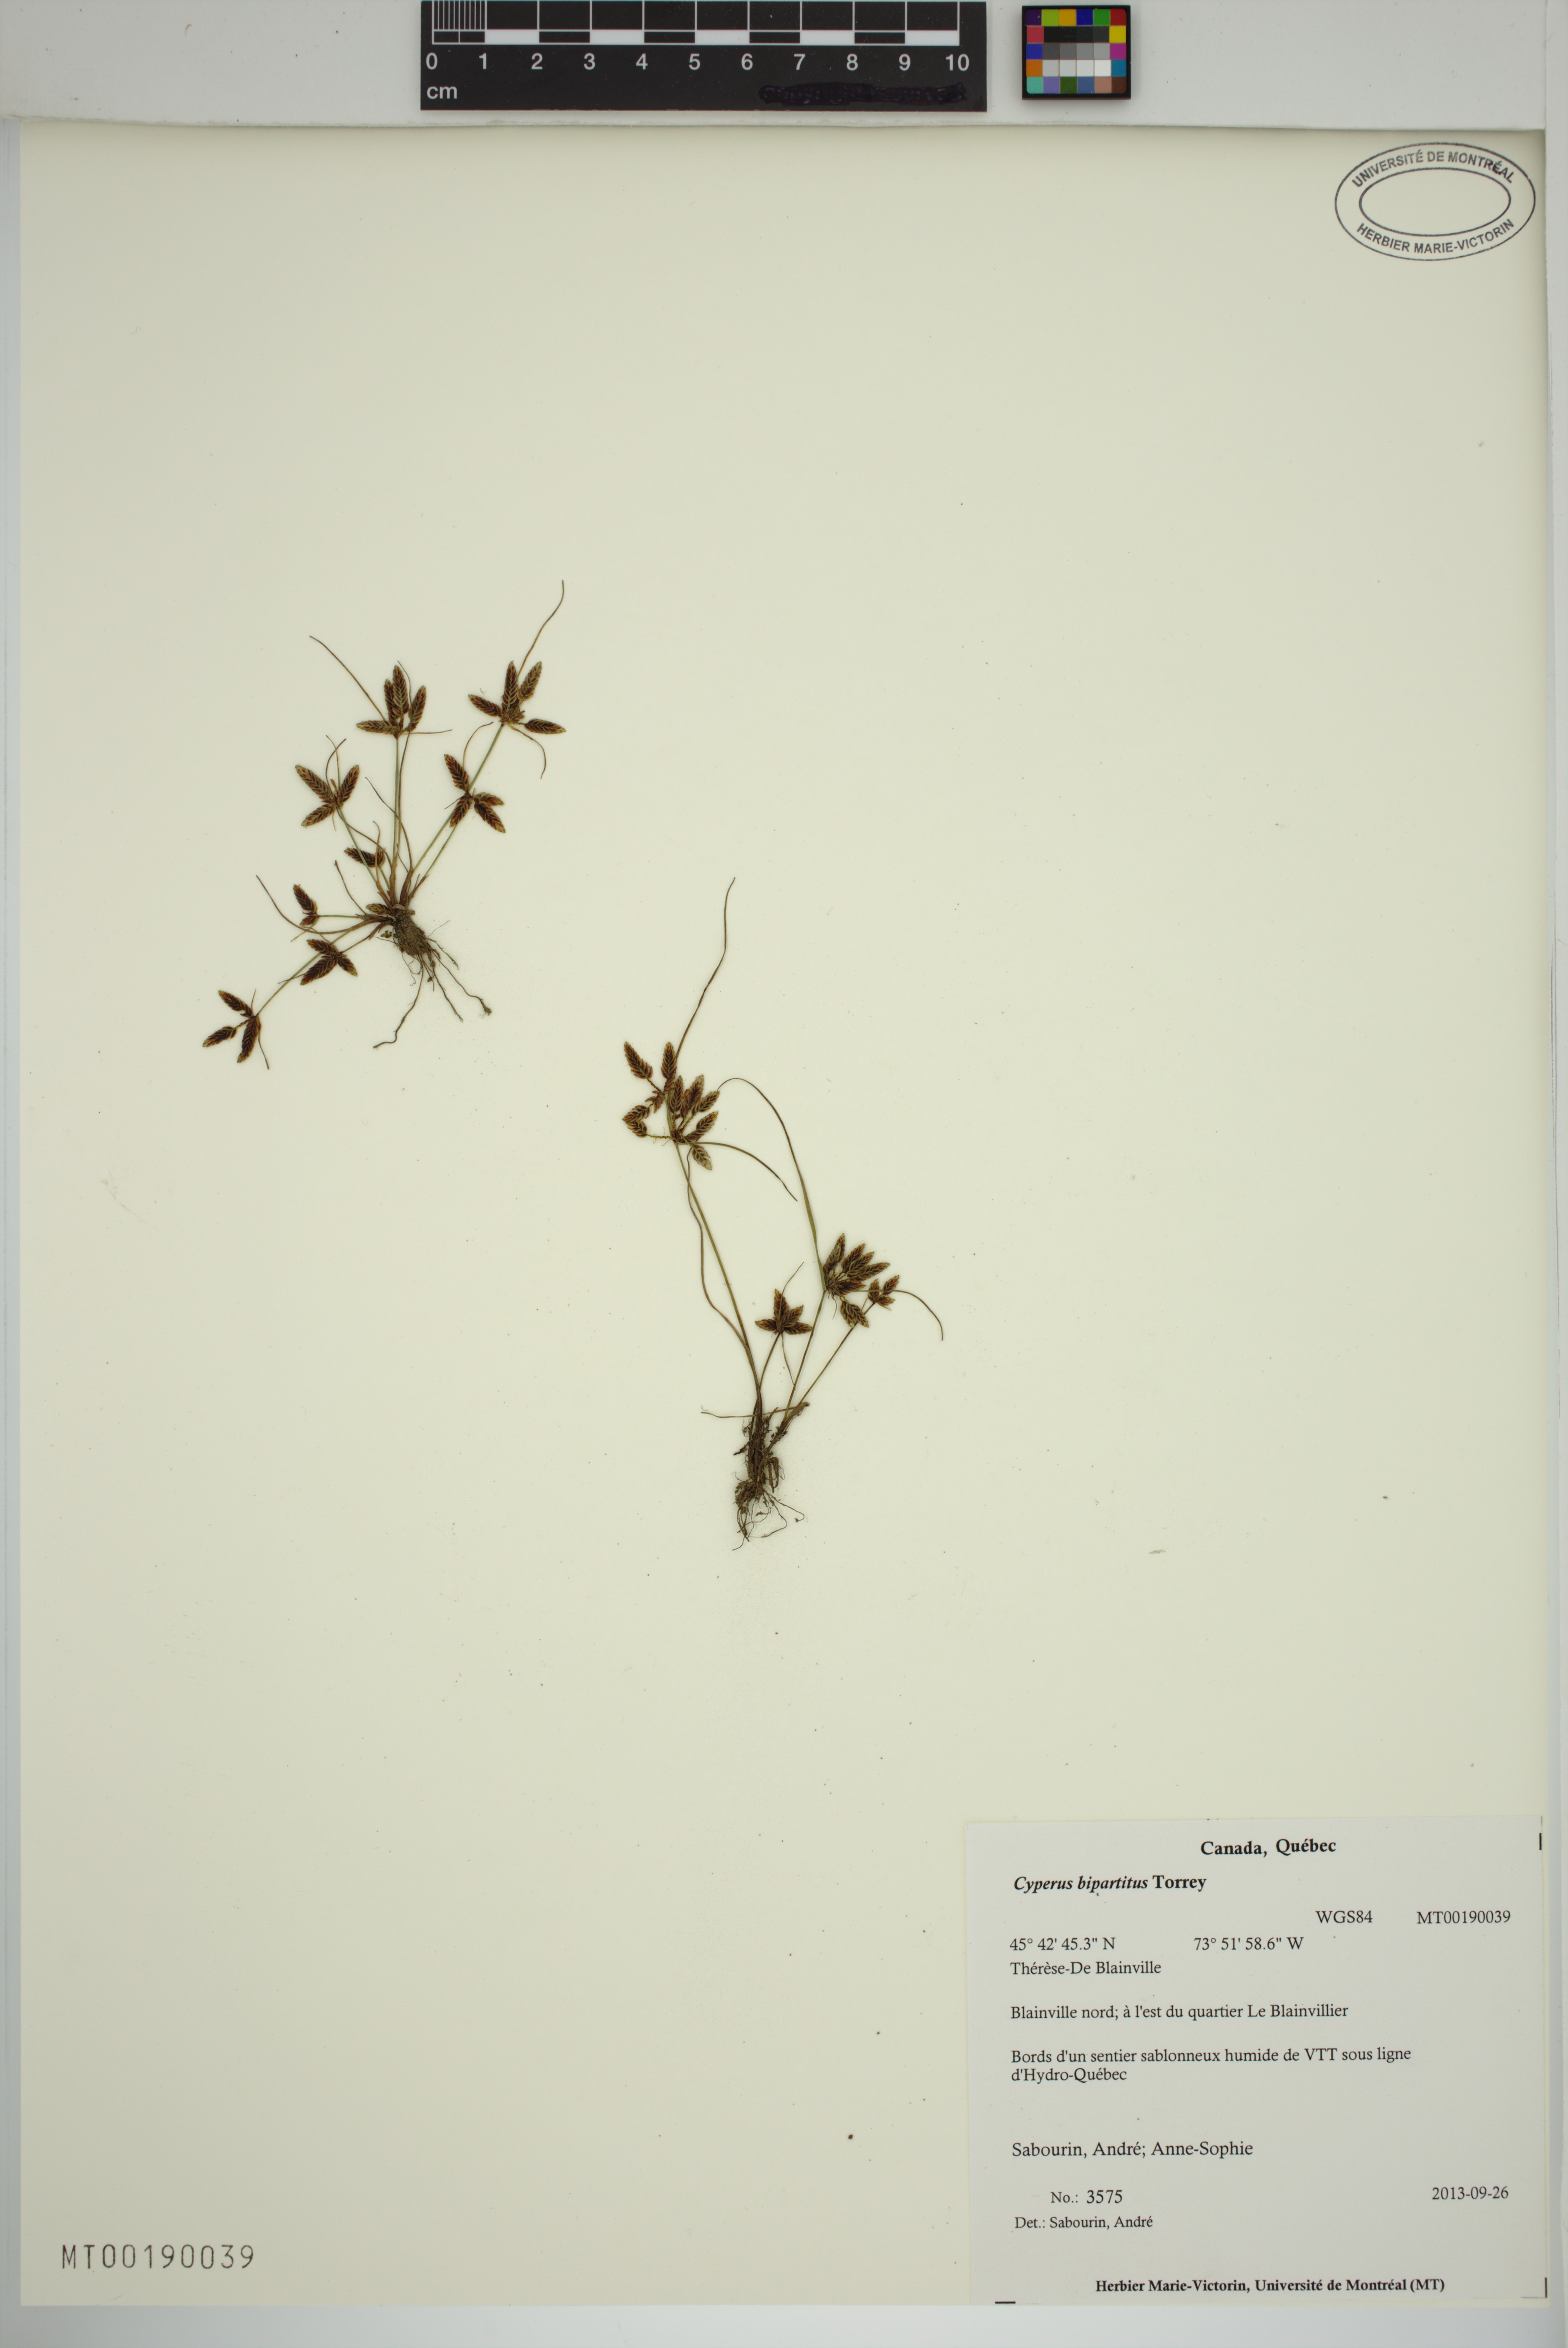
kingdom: Plantae
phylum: Tracheophyta
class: Liliopsida
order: Poales
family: Cyperaceae
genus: Cyperus
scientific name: Cyperus bipartitus
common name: Brook flatsedge
